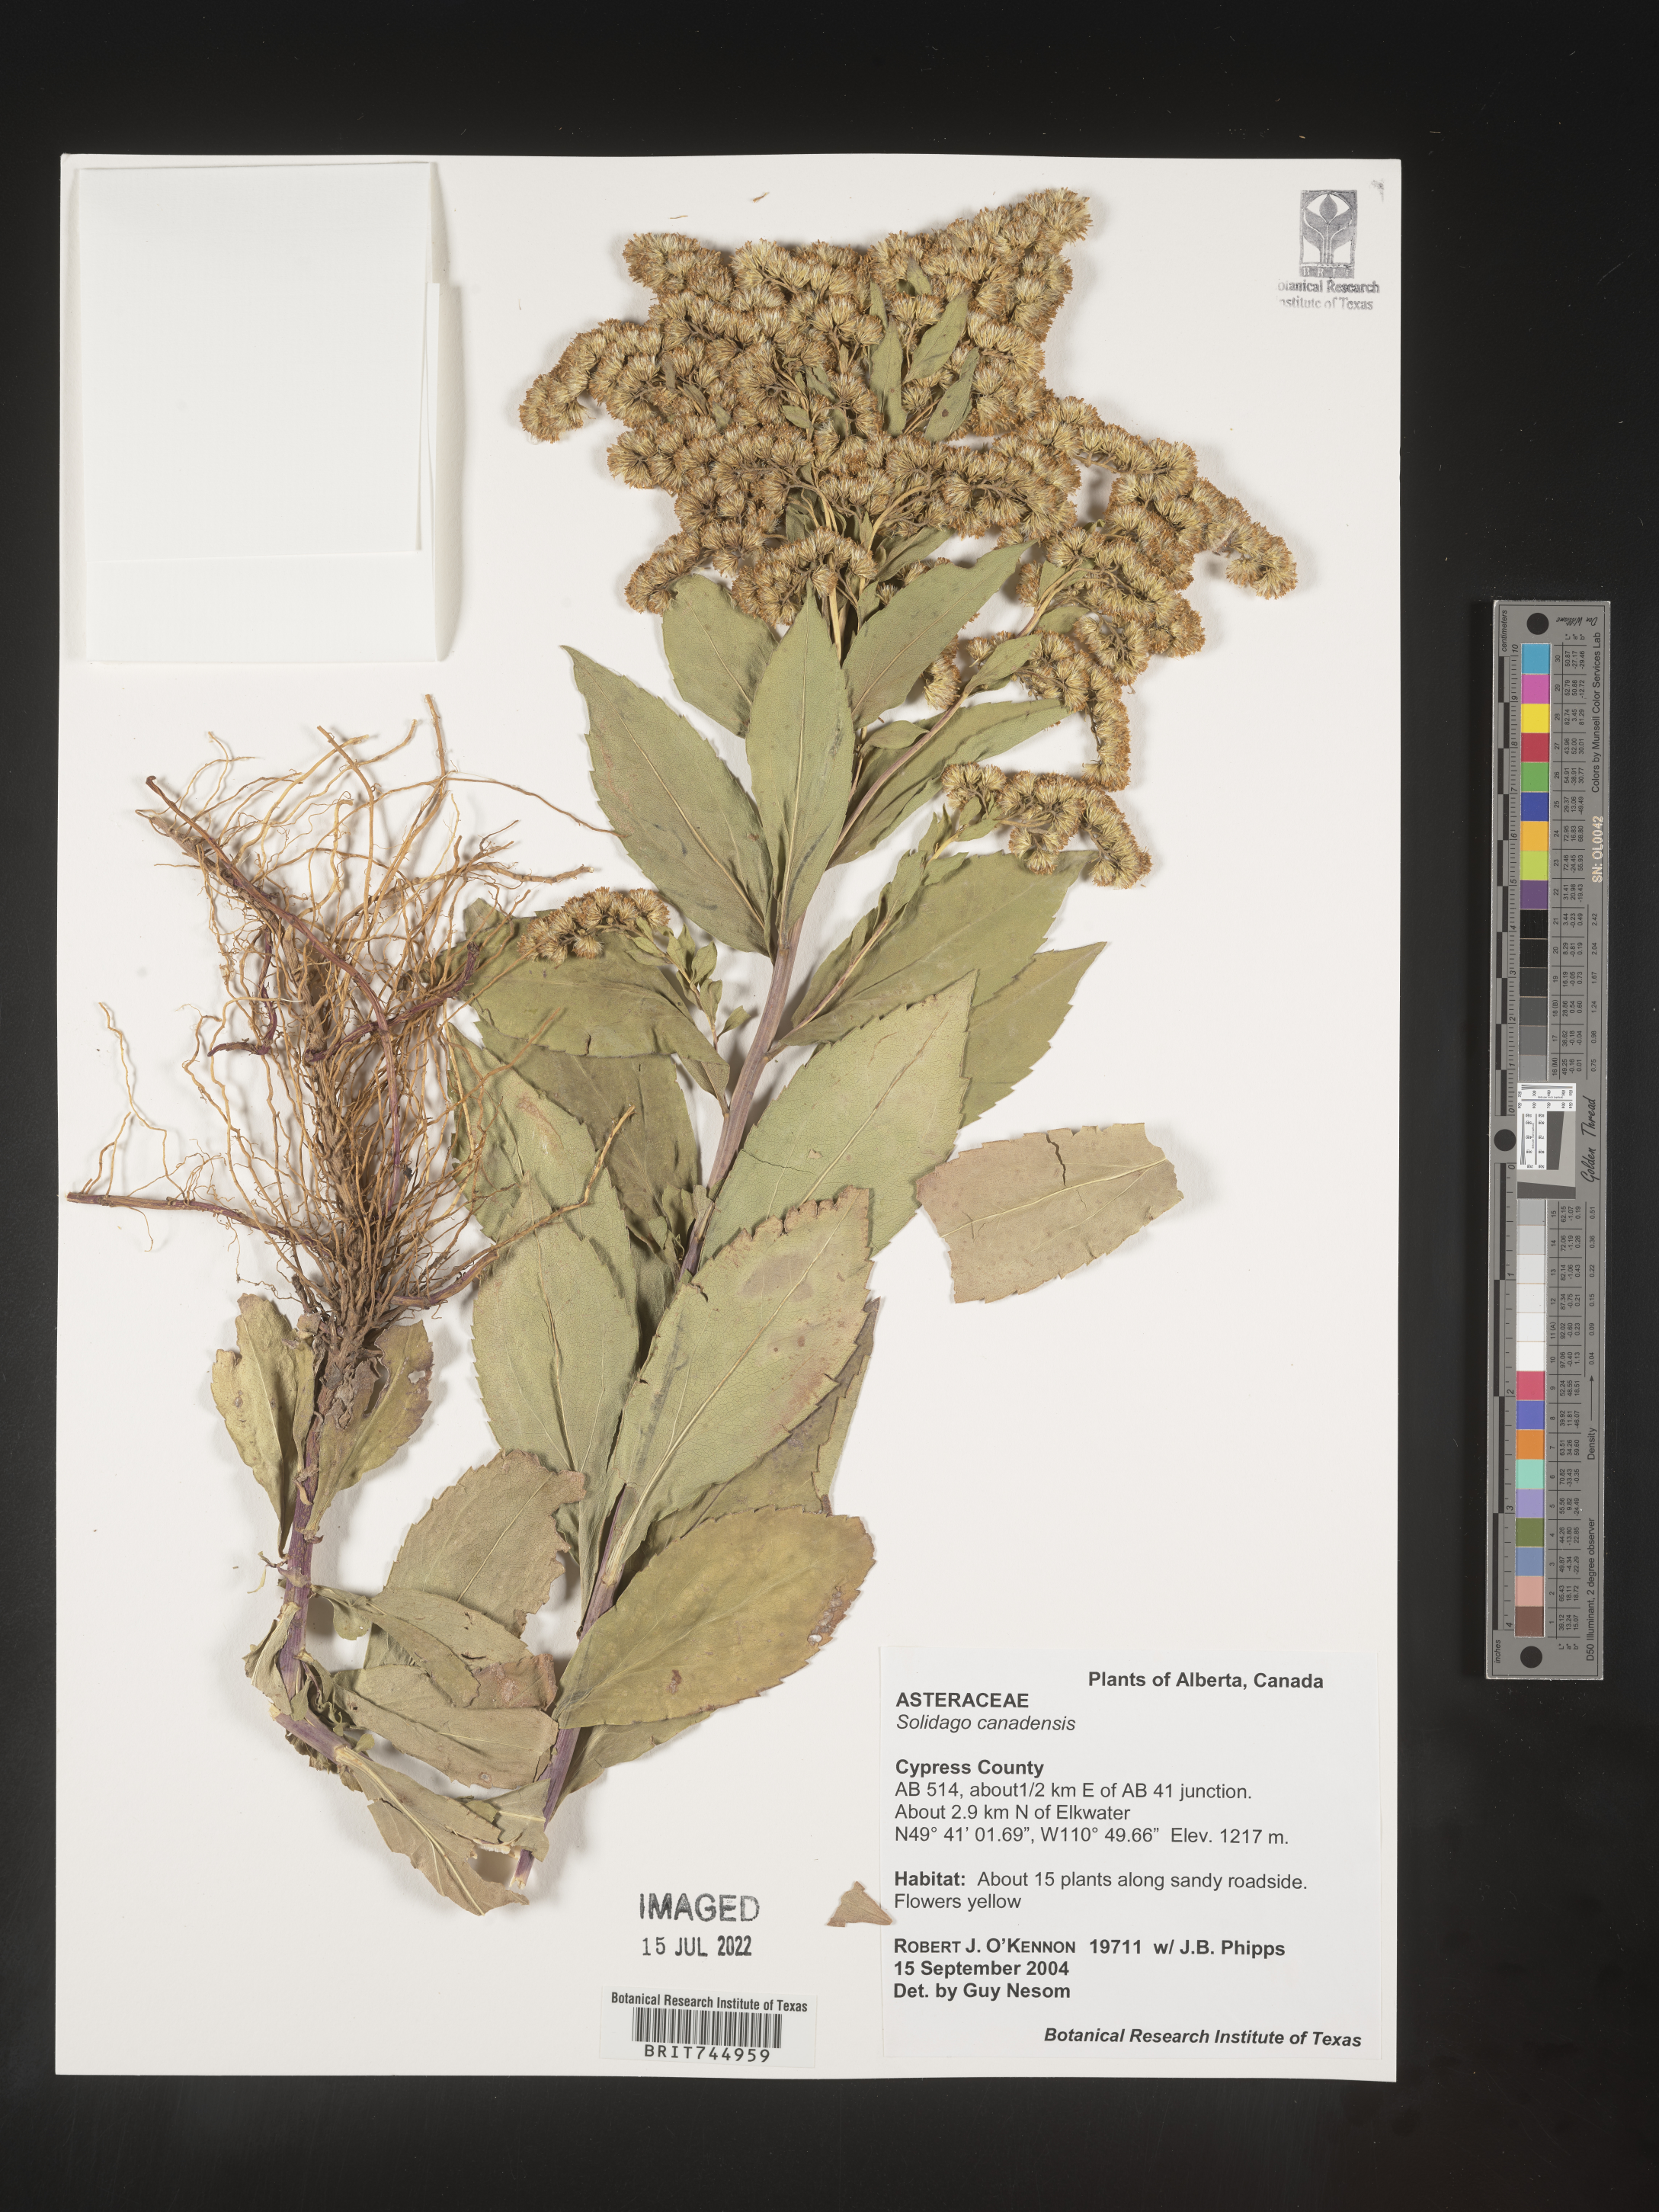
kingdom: Plantae
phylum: Tracheophyta
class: Magnoliopsida
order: Asterales
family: Asteraceae
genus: Solidago
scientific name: Solidago canadensis
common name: Canada goldenrod
